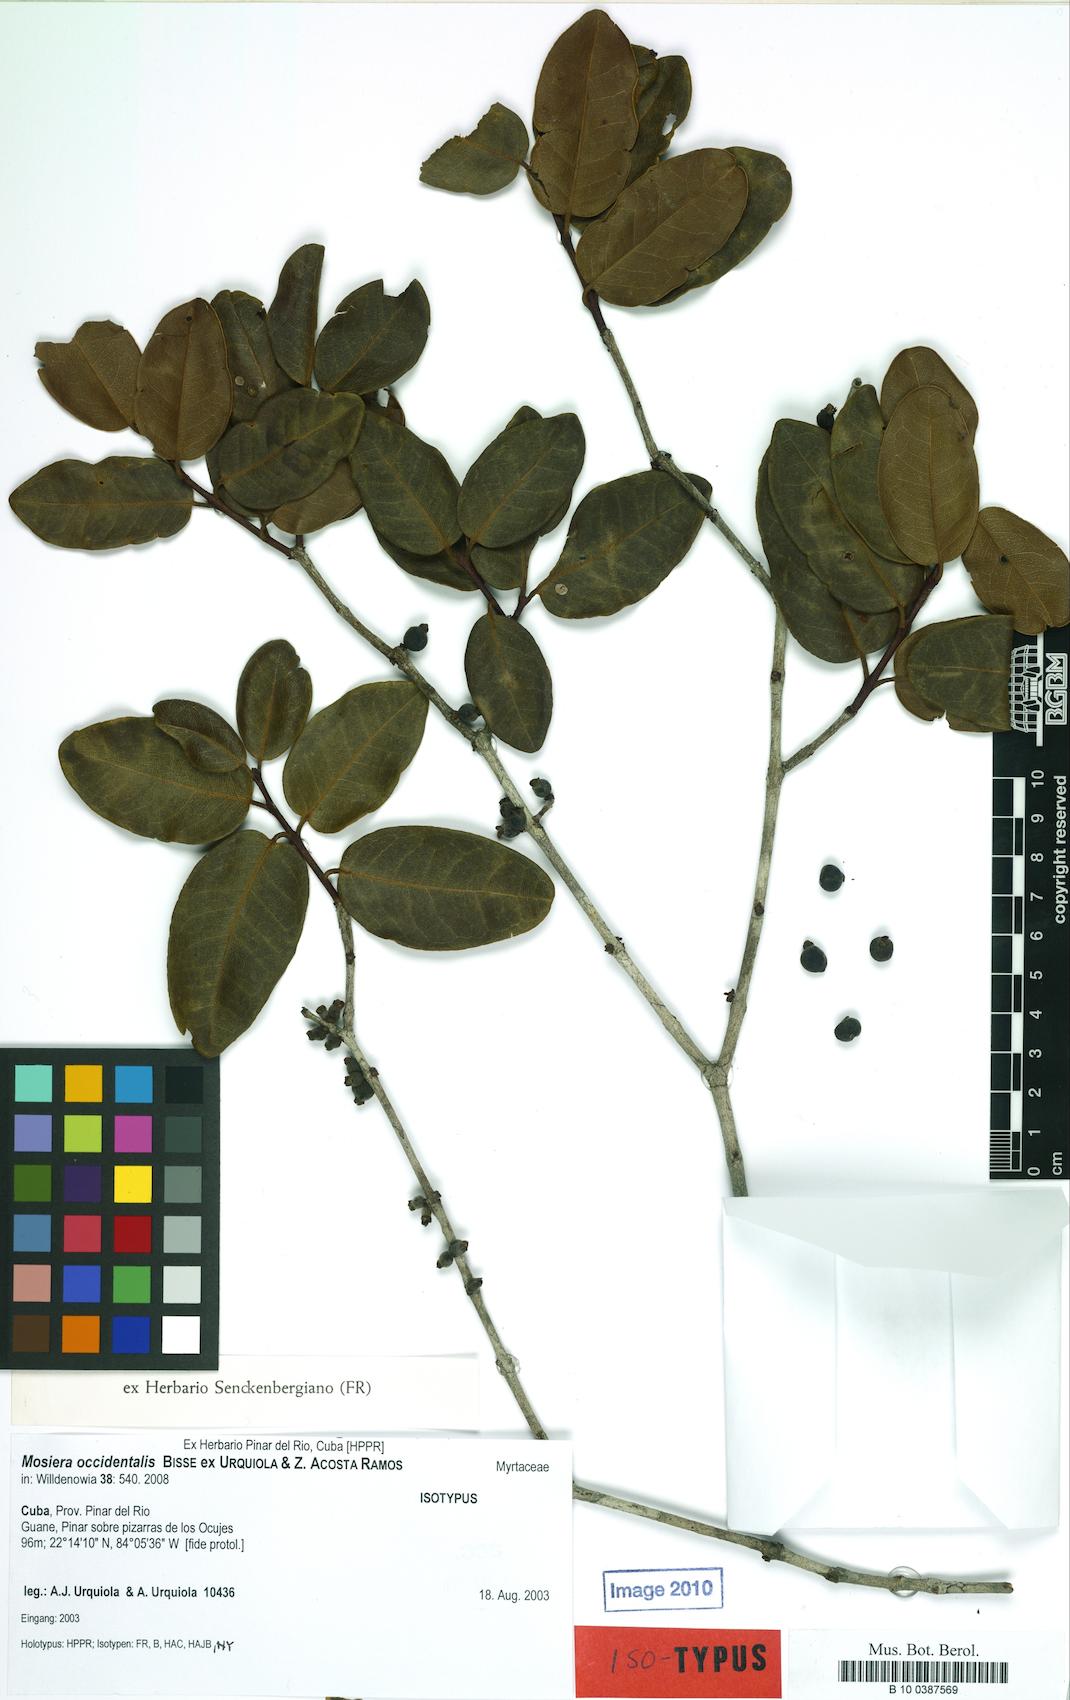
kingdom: Plantae
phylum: Tracheophyta
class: Magnoliopsida
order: Myrtales
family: Myrtaceae
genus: Mosiera
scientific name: Mosiera occidentalis
